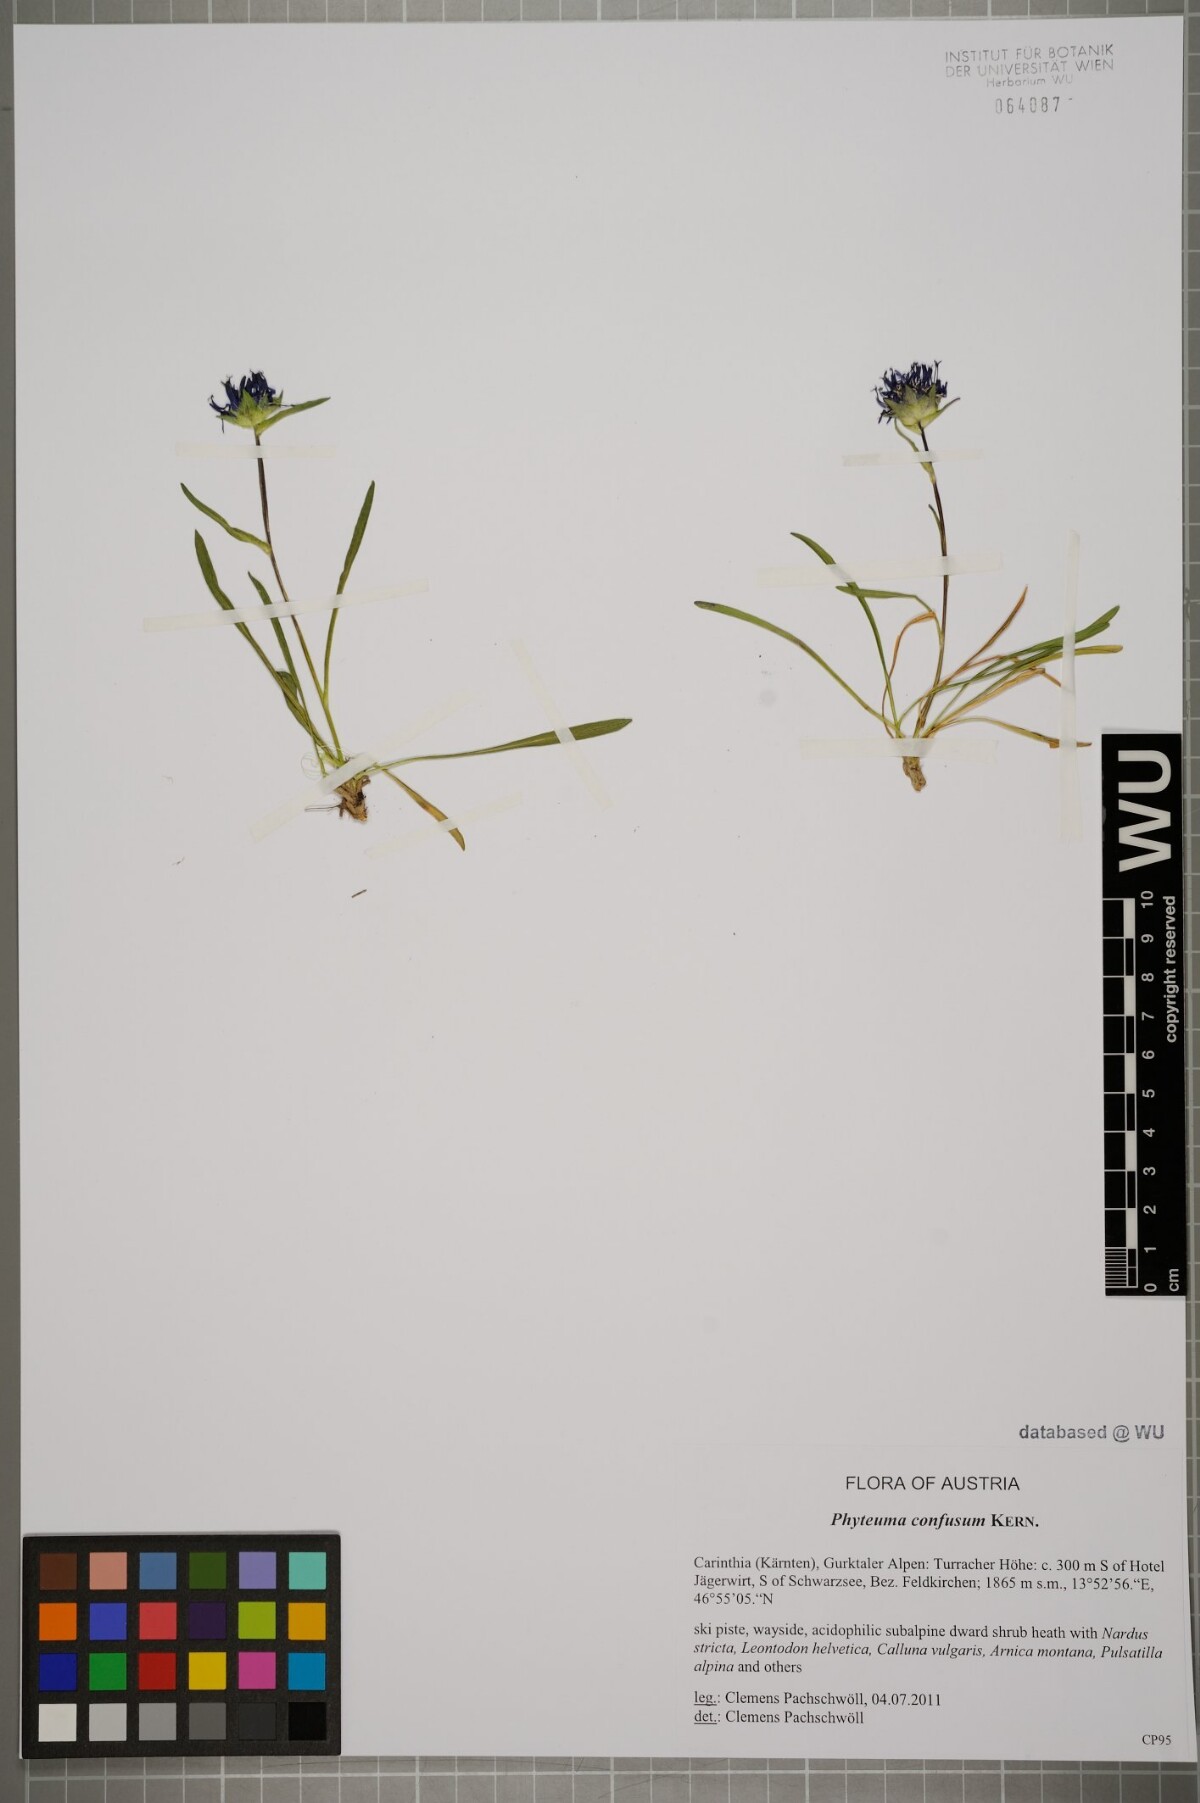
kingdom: Plantae
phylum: Tracheophyta
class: Magnoliopsida
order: Asterales
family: Campanulaceae
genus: Phyteuma
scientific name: Phyteuma confusum
